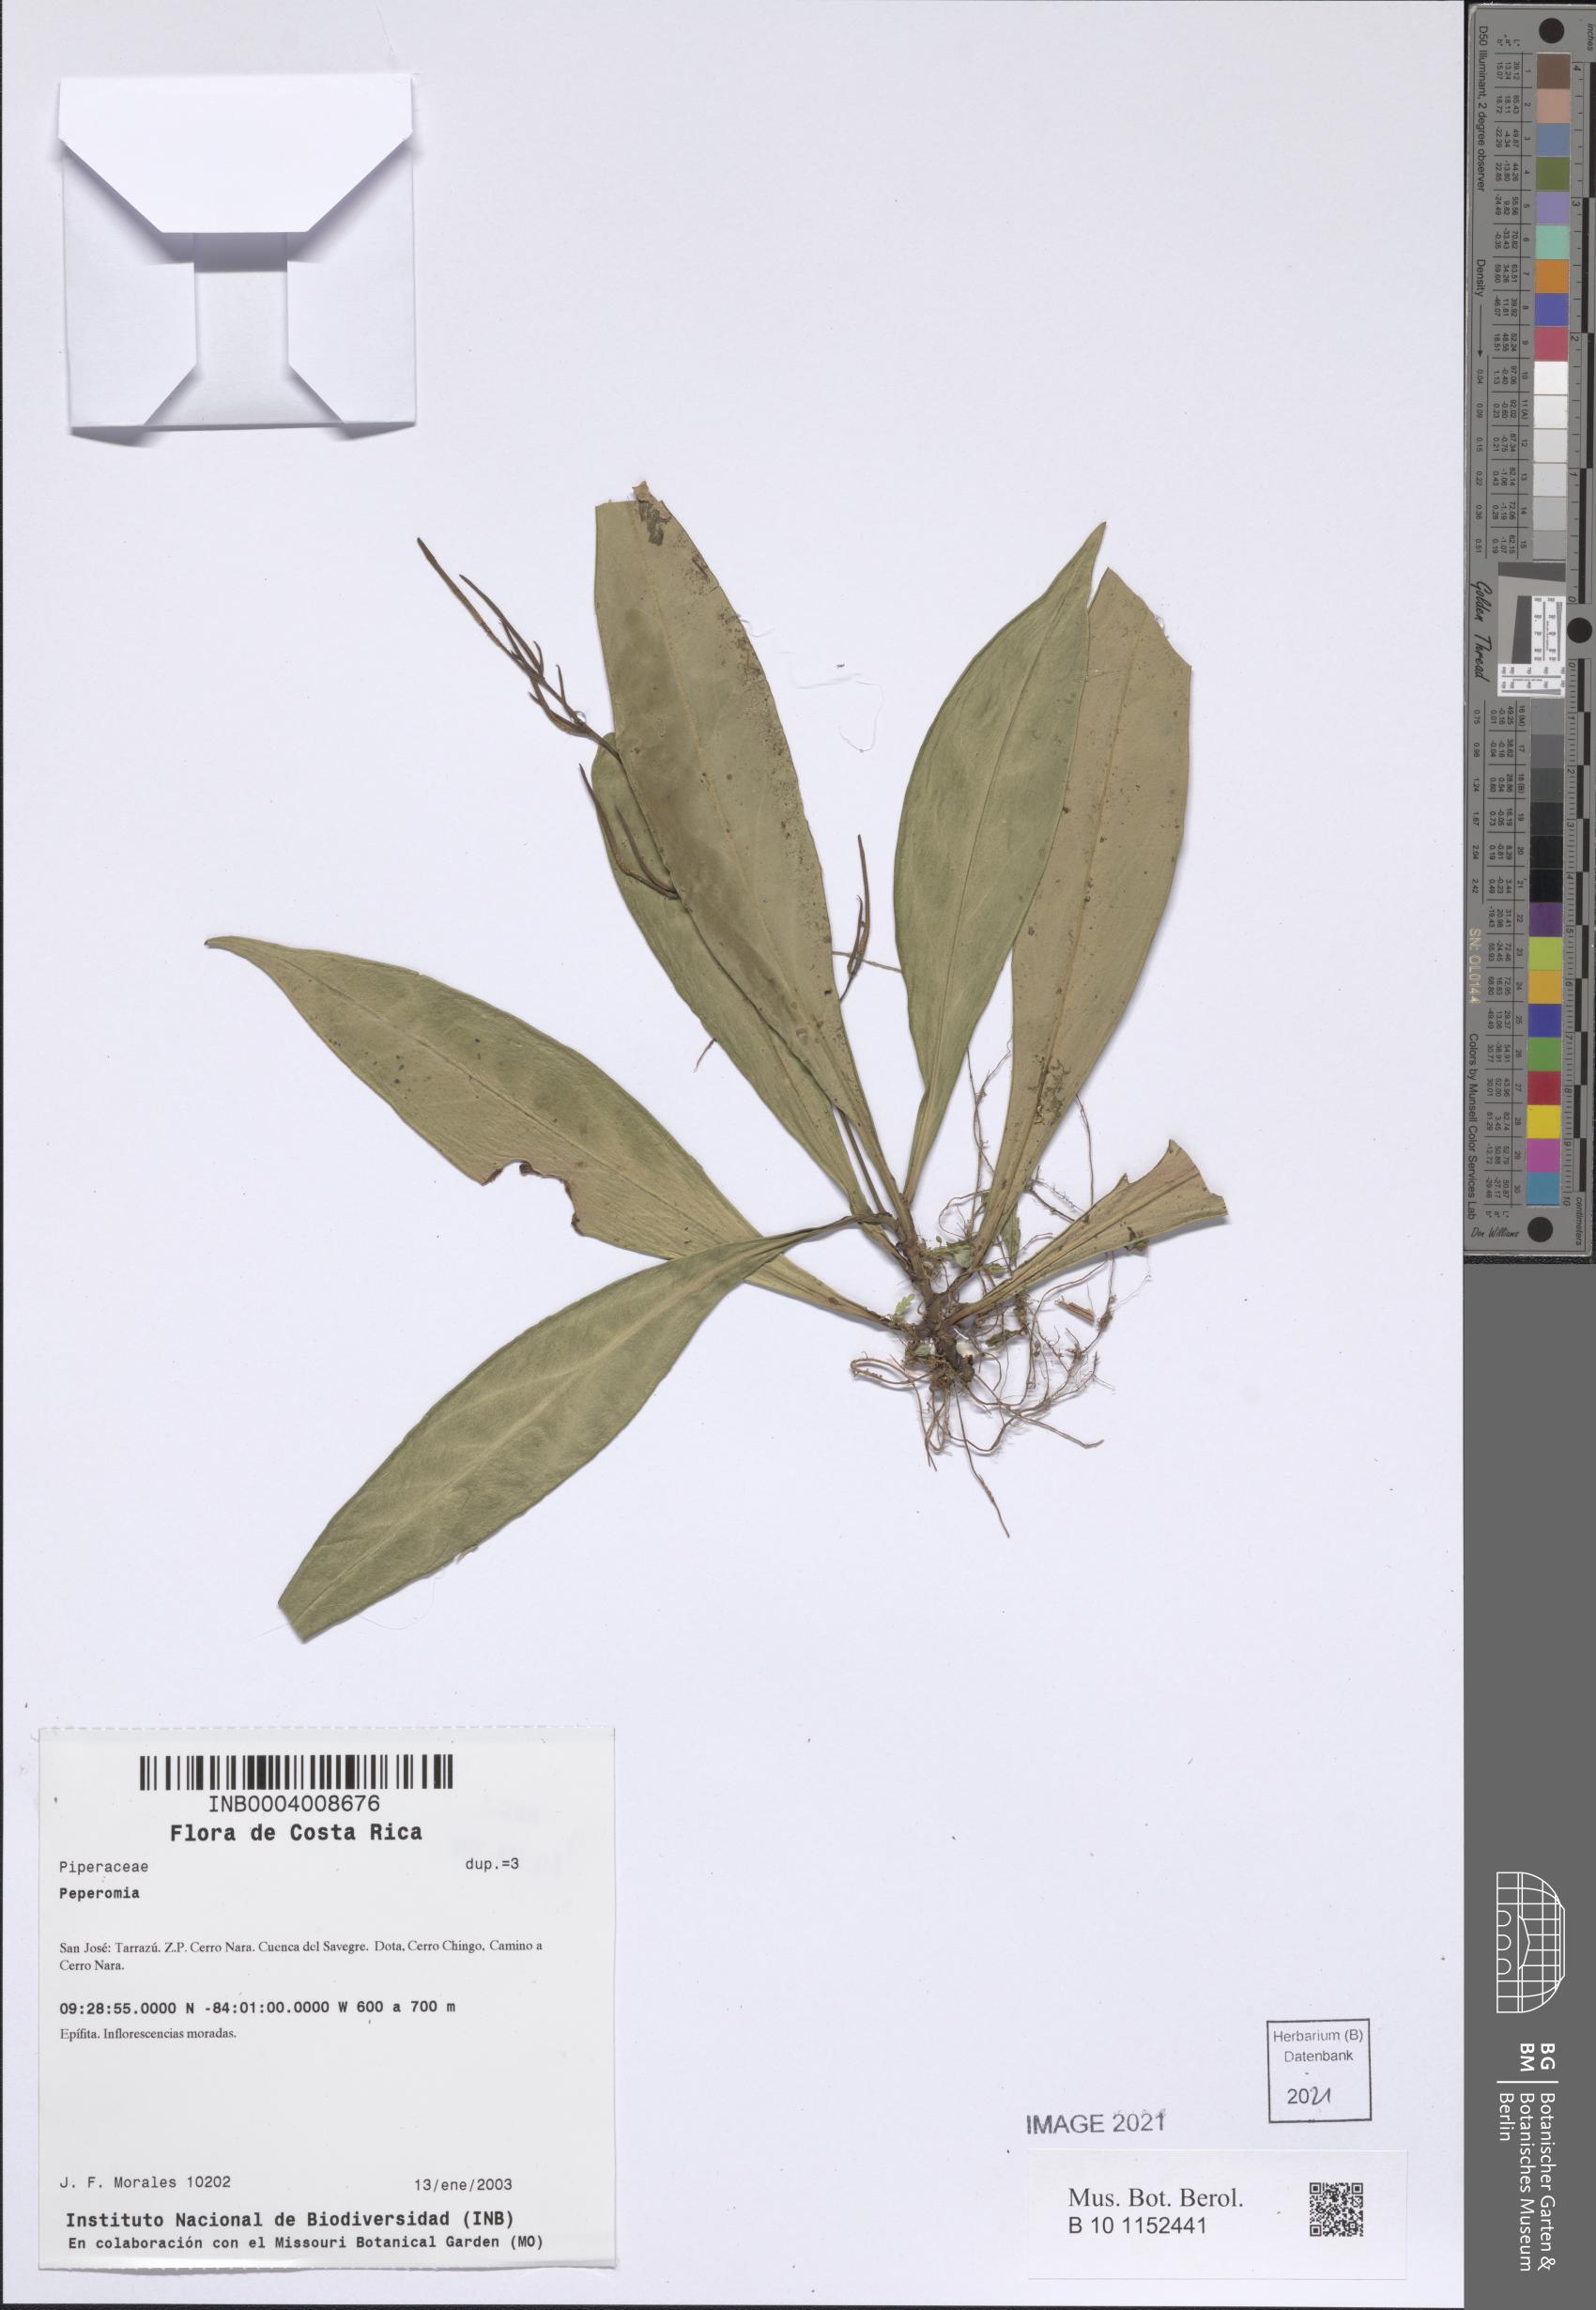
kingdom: Plantae
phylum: Tracheophyta
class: Magnoliopsida
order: Piperales
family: Piperaceae
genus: Peperomia
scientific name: Peperomia
